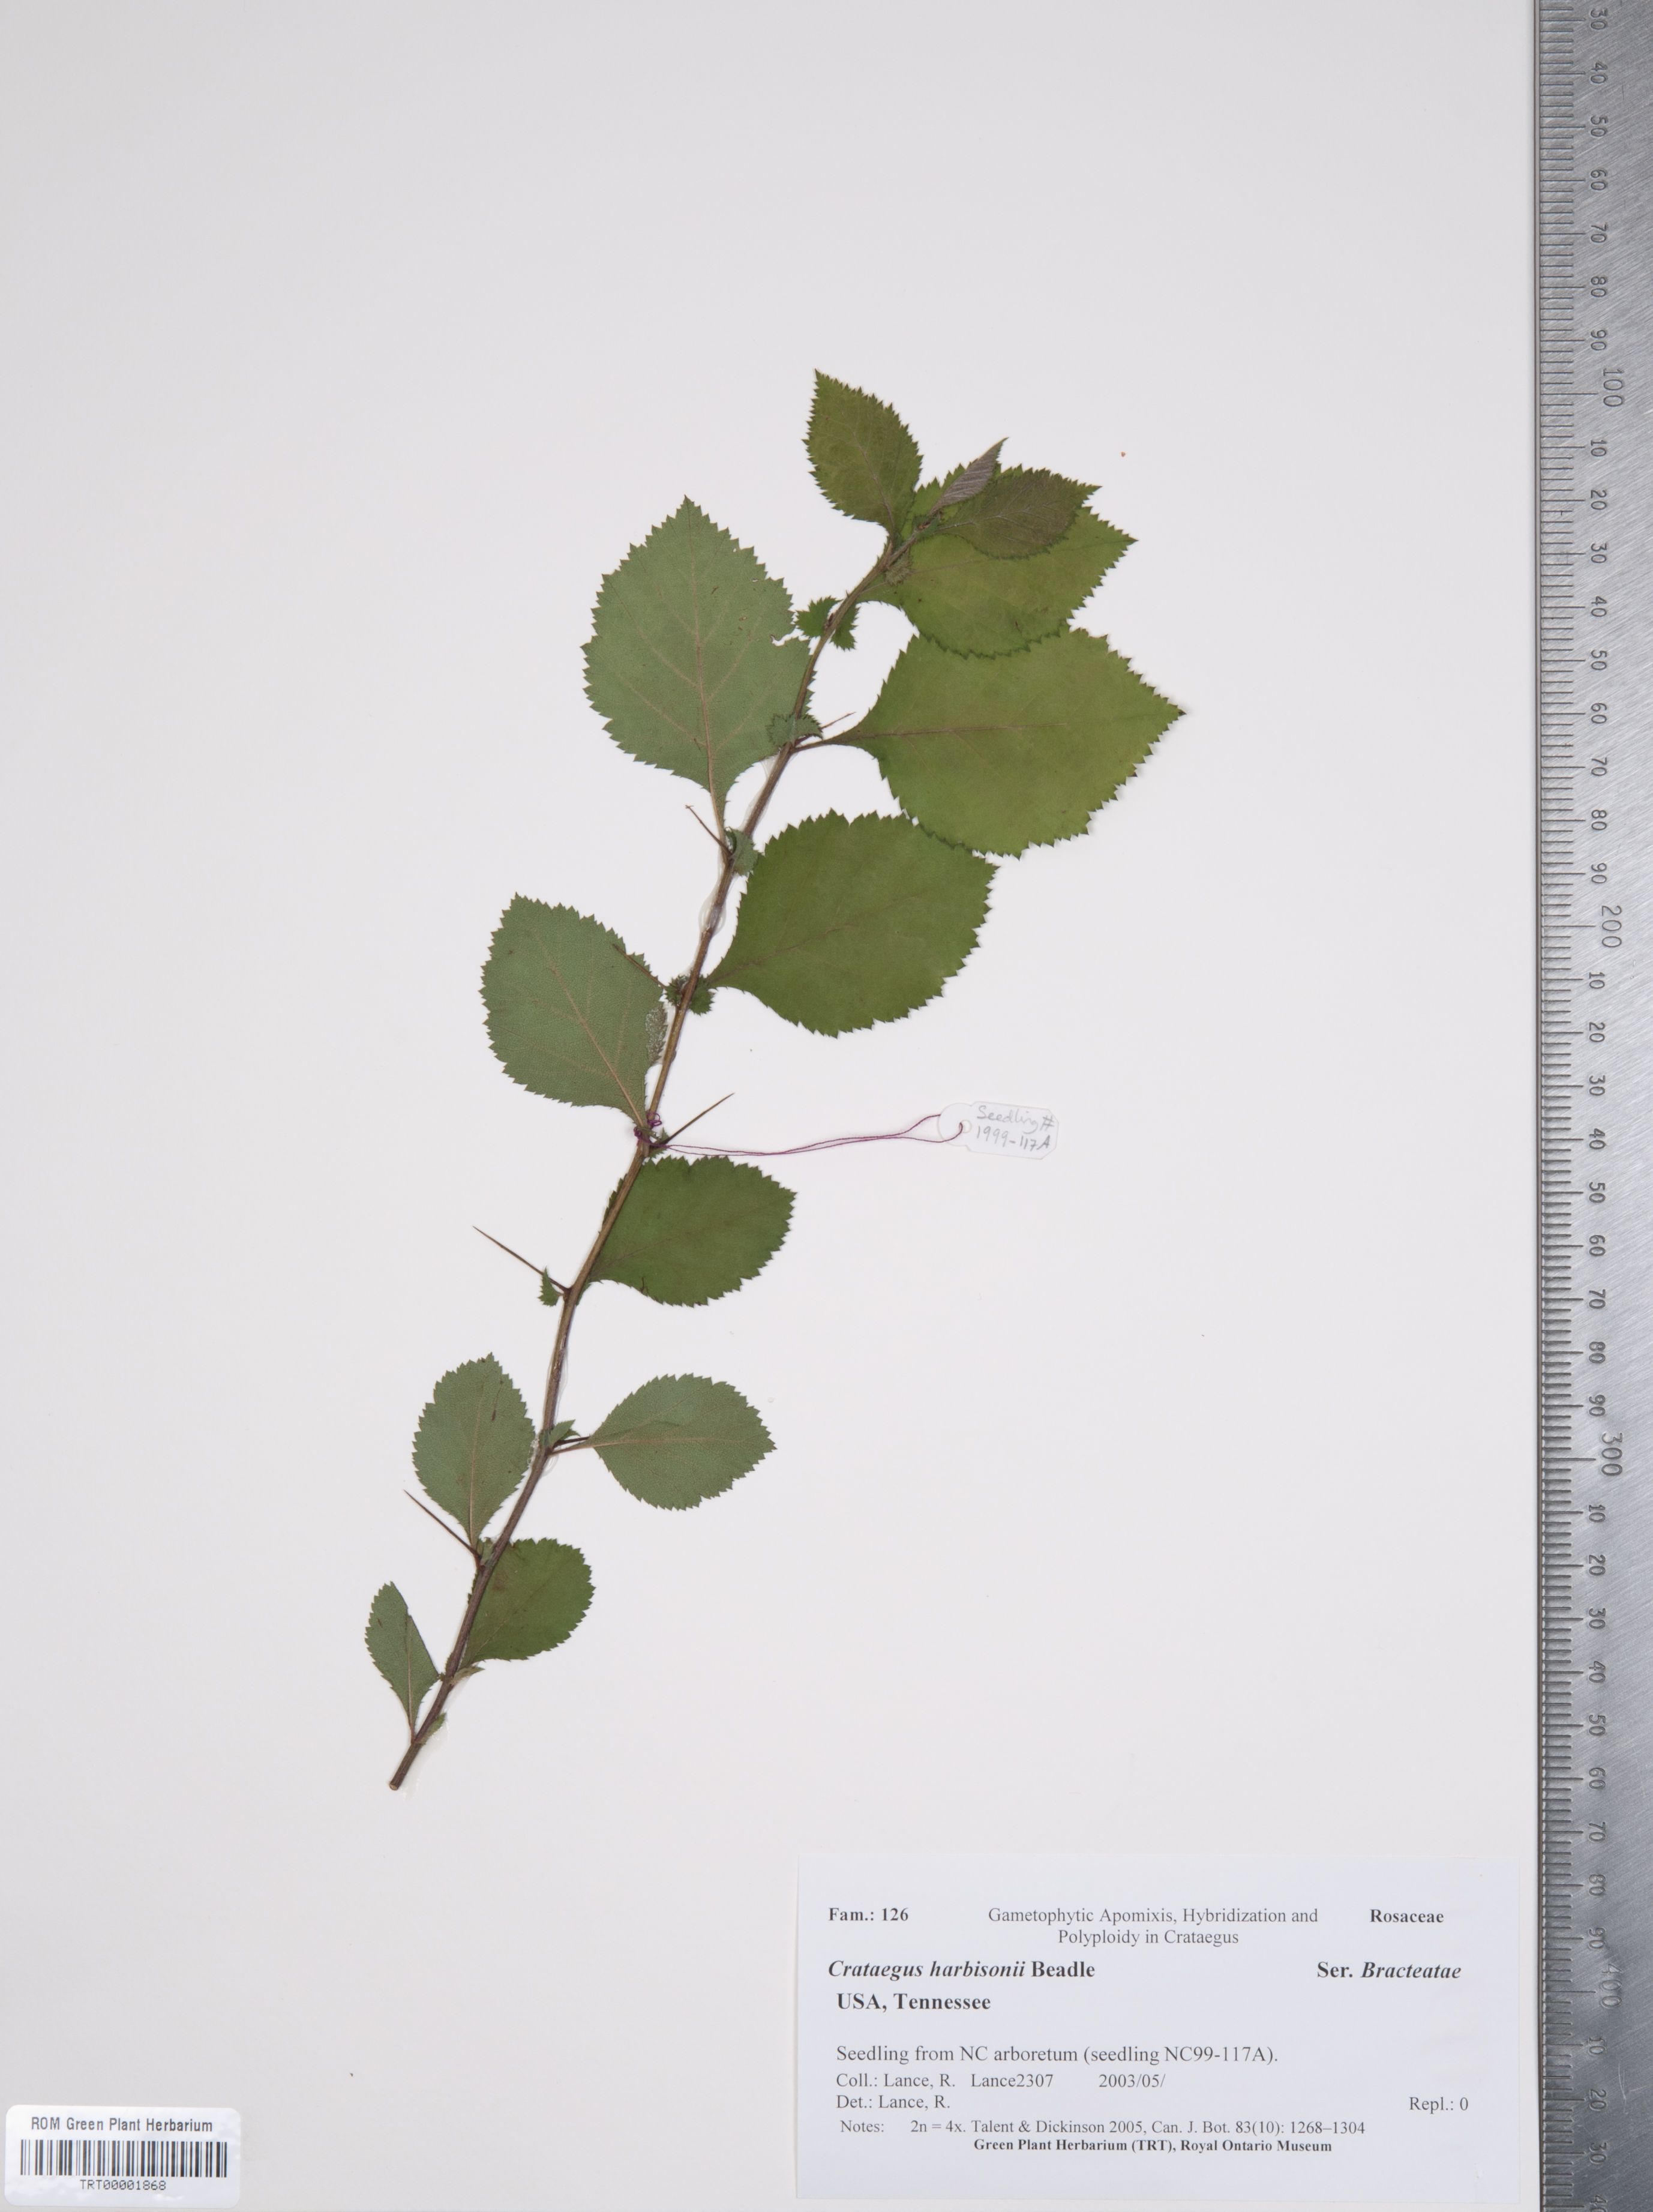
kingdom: Plantae
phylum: Tracheophyta
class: Magnoliopsida
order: Rosales
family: Rosaceae
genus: Crataegus
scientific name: Crataegus harbisonii
